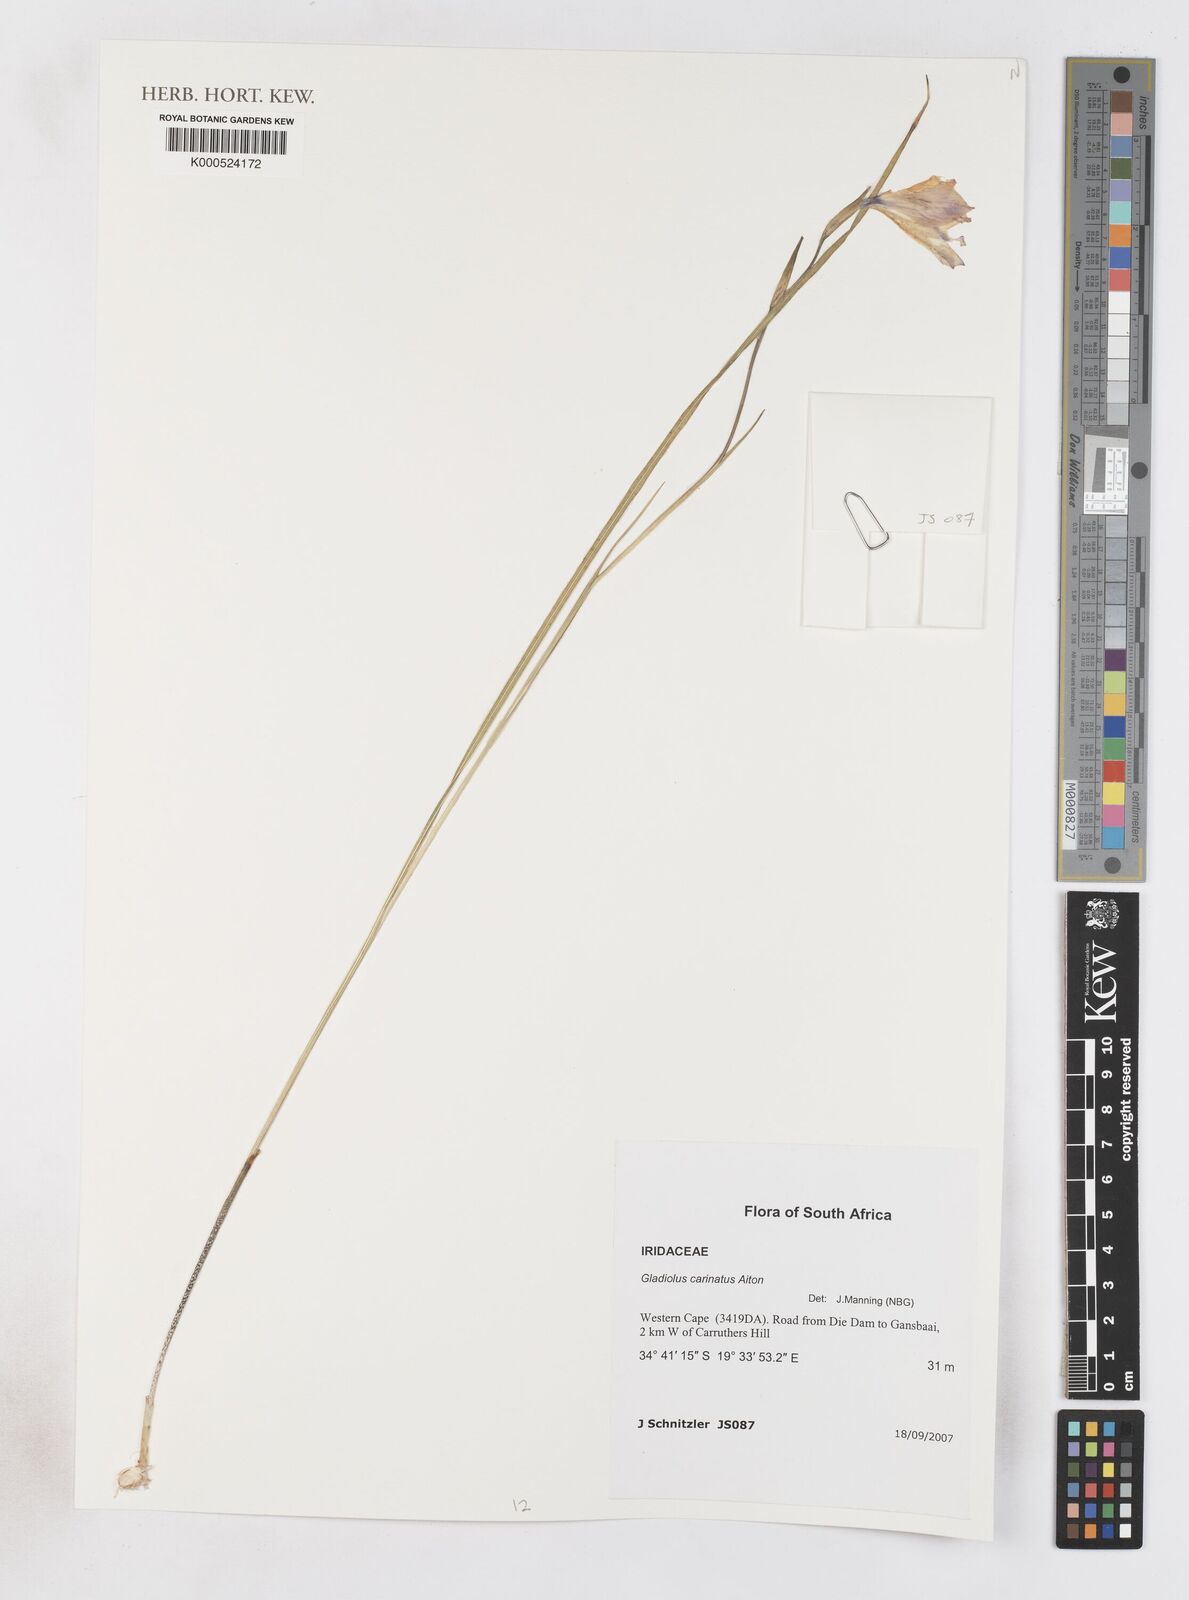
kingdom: Plantae
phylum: Tracheophyta
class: Liliopsida
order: Asparagales
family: Iridaceae
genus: Gladiolus
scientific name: Gladiolus carinatus
